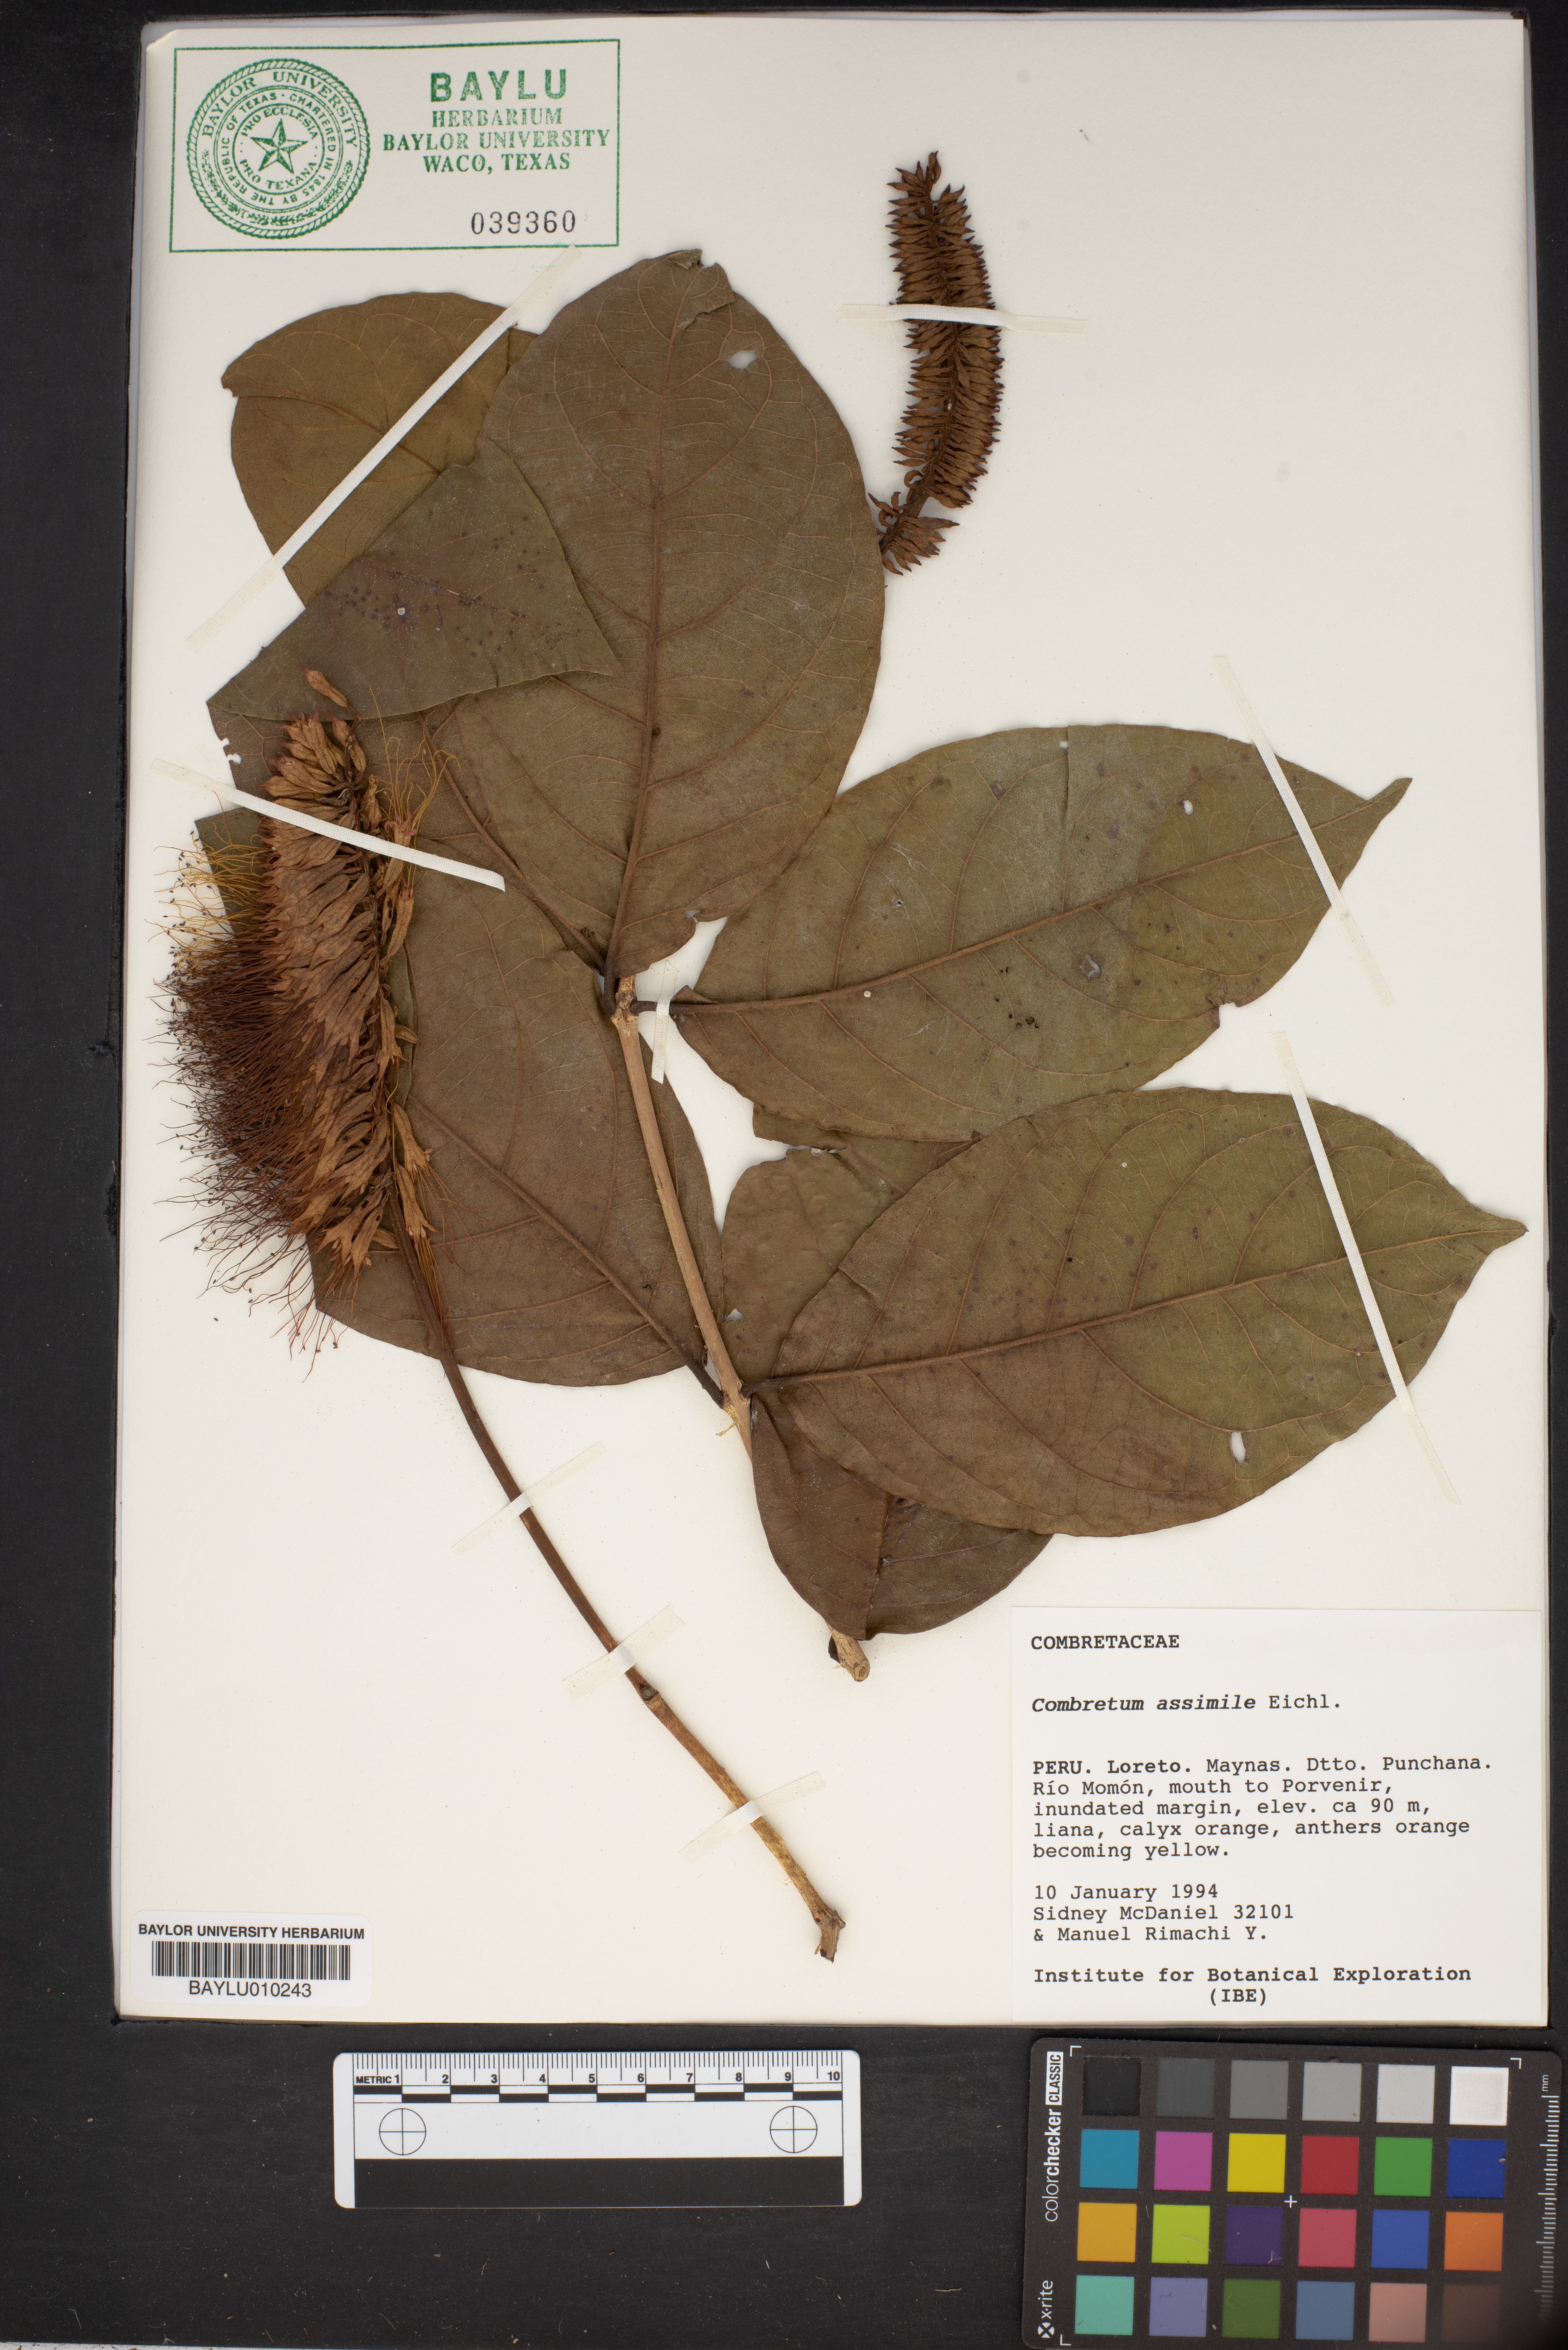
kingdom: Plantae
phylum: Tracheophyta
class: Magnoliopsida
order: Myrtales
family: Combretaceae
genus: Combretum
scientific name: Combretum assimile
